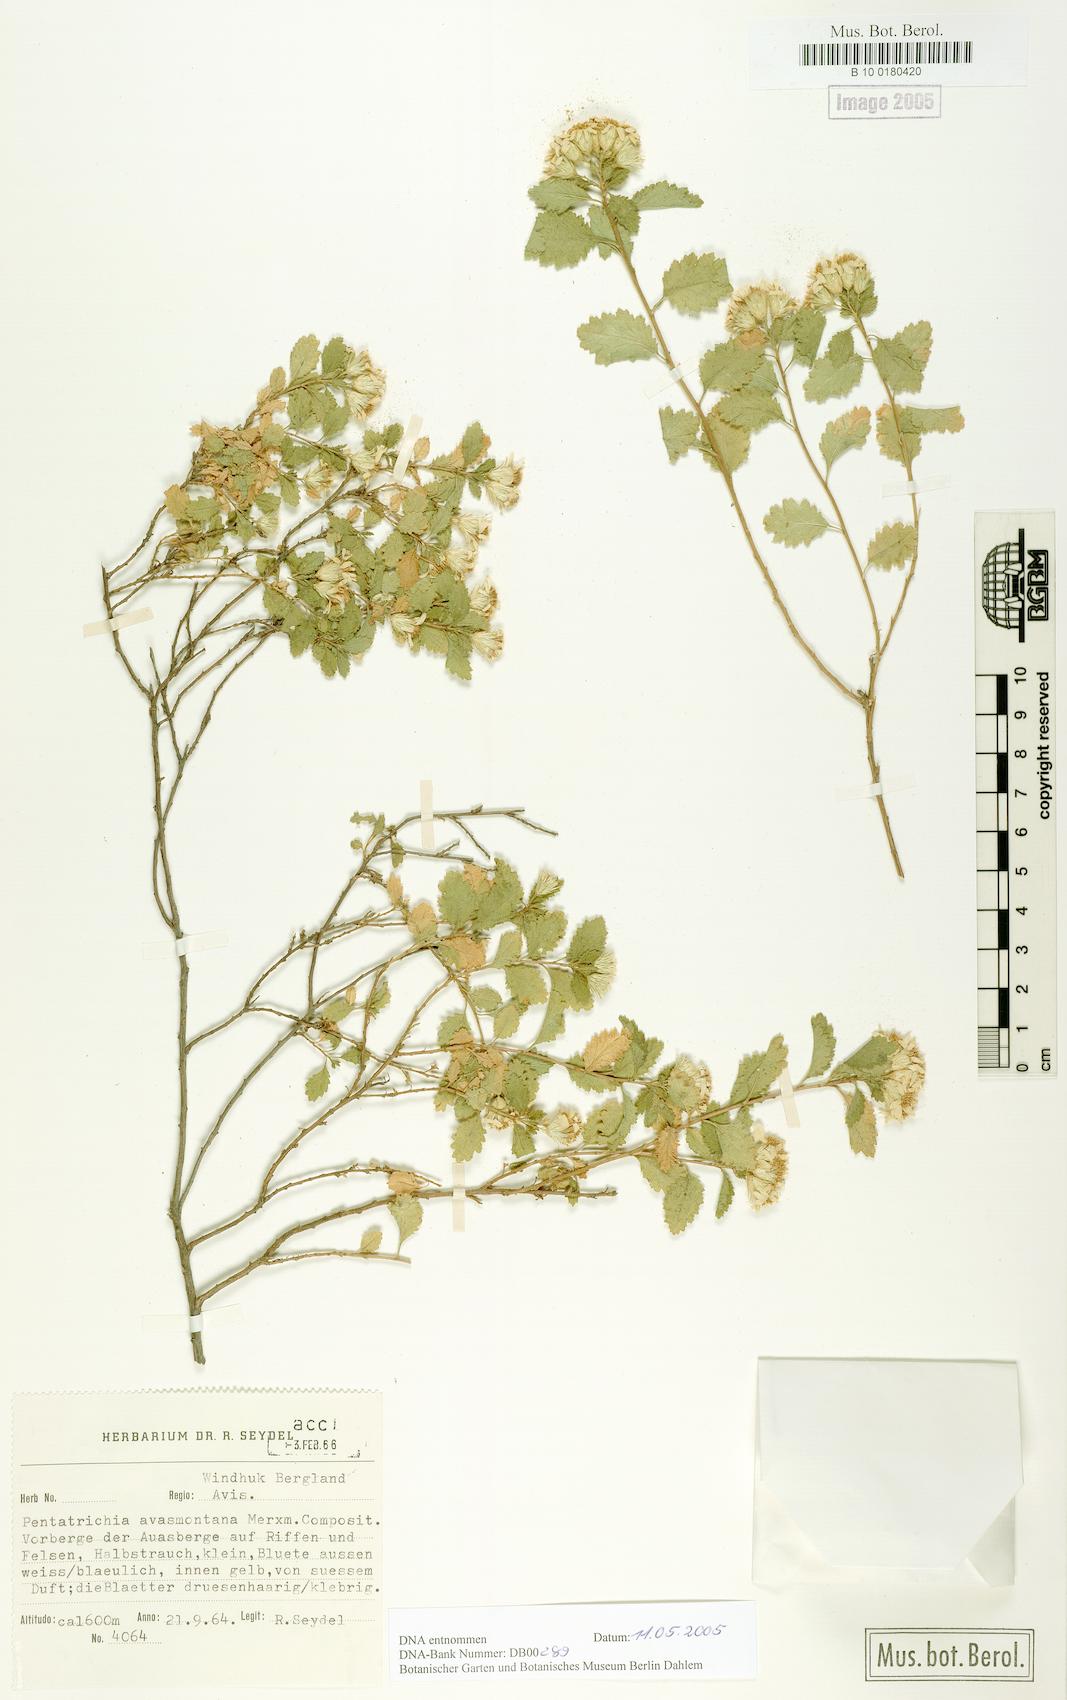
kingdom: Plantae
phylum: Tracheophyta
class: Magnoliopsida
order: Asterales
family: Asteraceae
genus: Pentatrichia
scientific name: Pentatrichia rehmii
